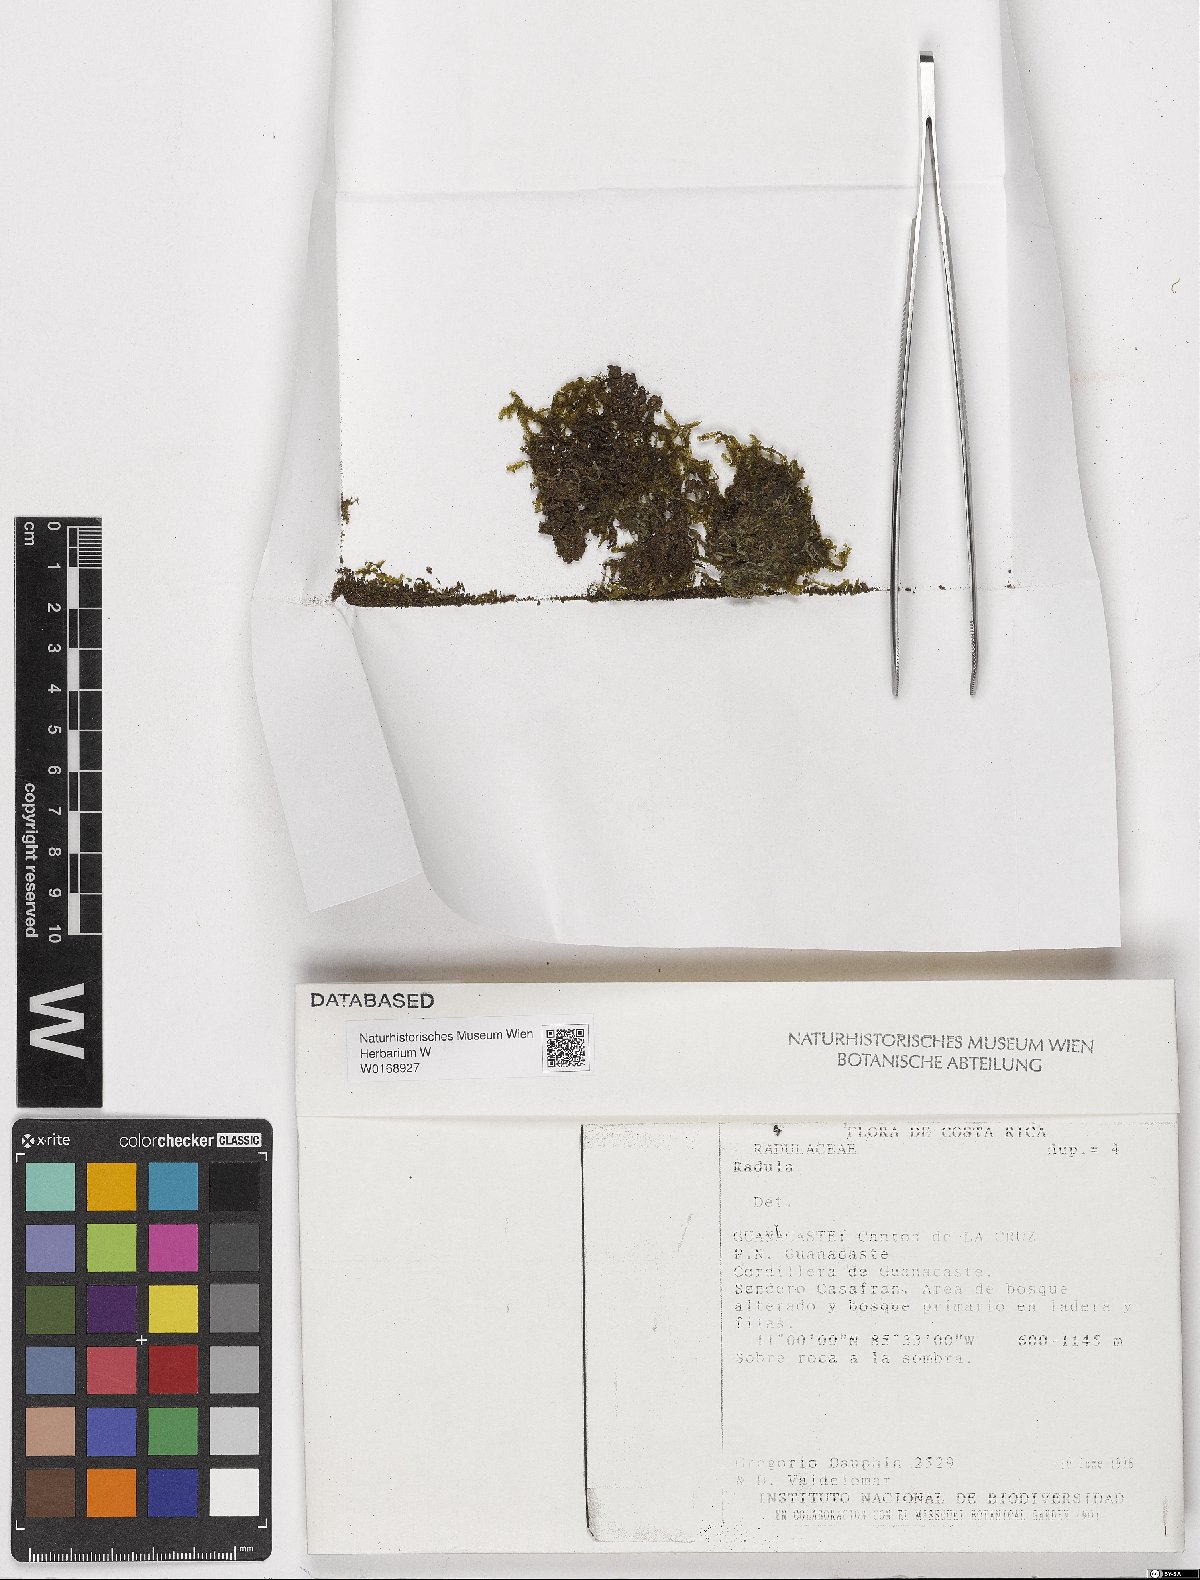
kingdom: Plantae
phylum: Marchantiophyta
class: Jungermanniopsida
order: Porellales
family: Radulaceae
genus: Radula
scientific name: Radula
